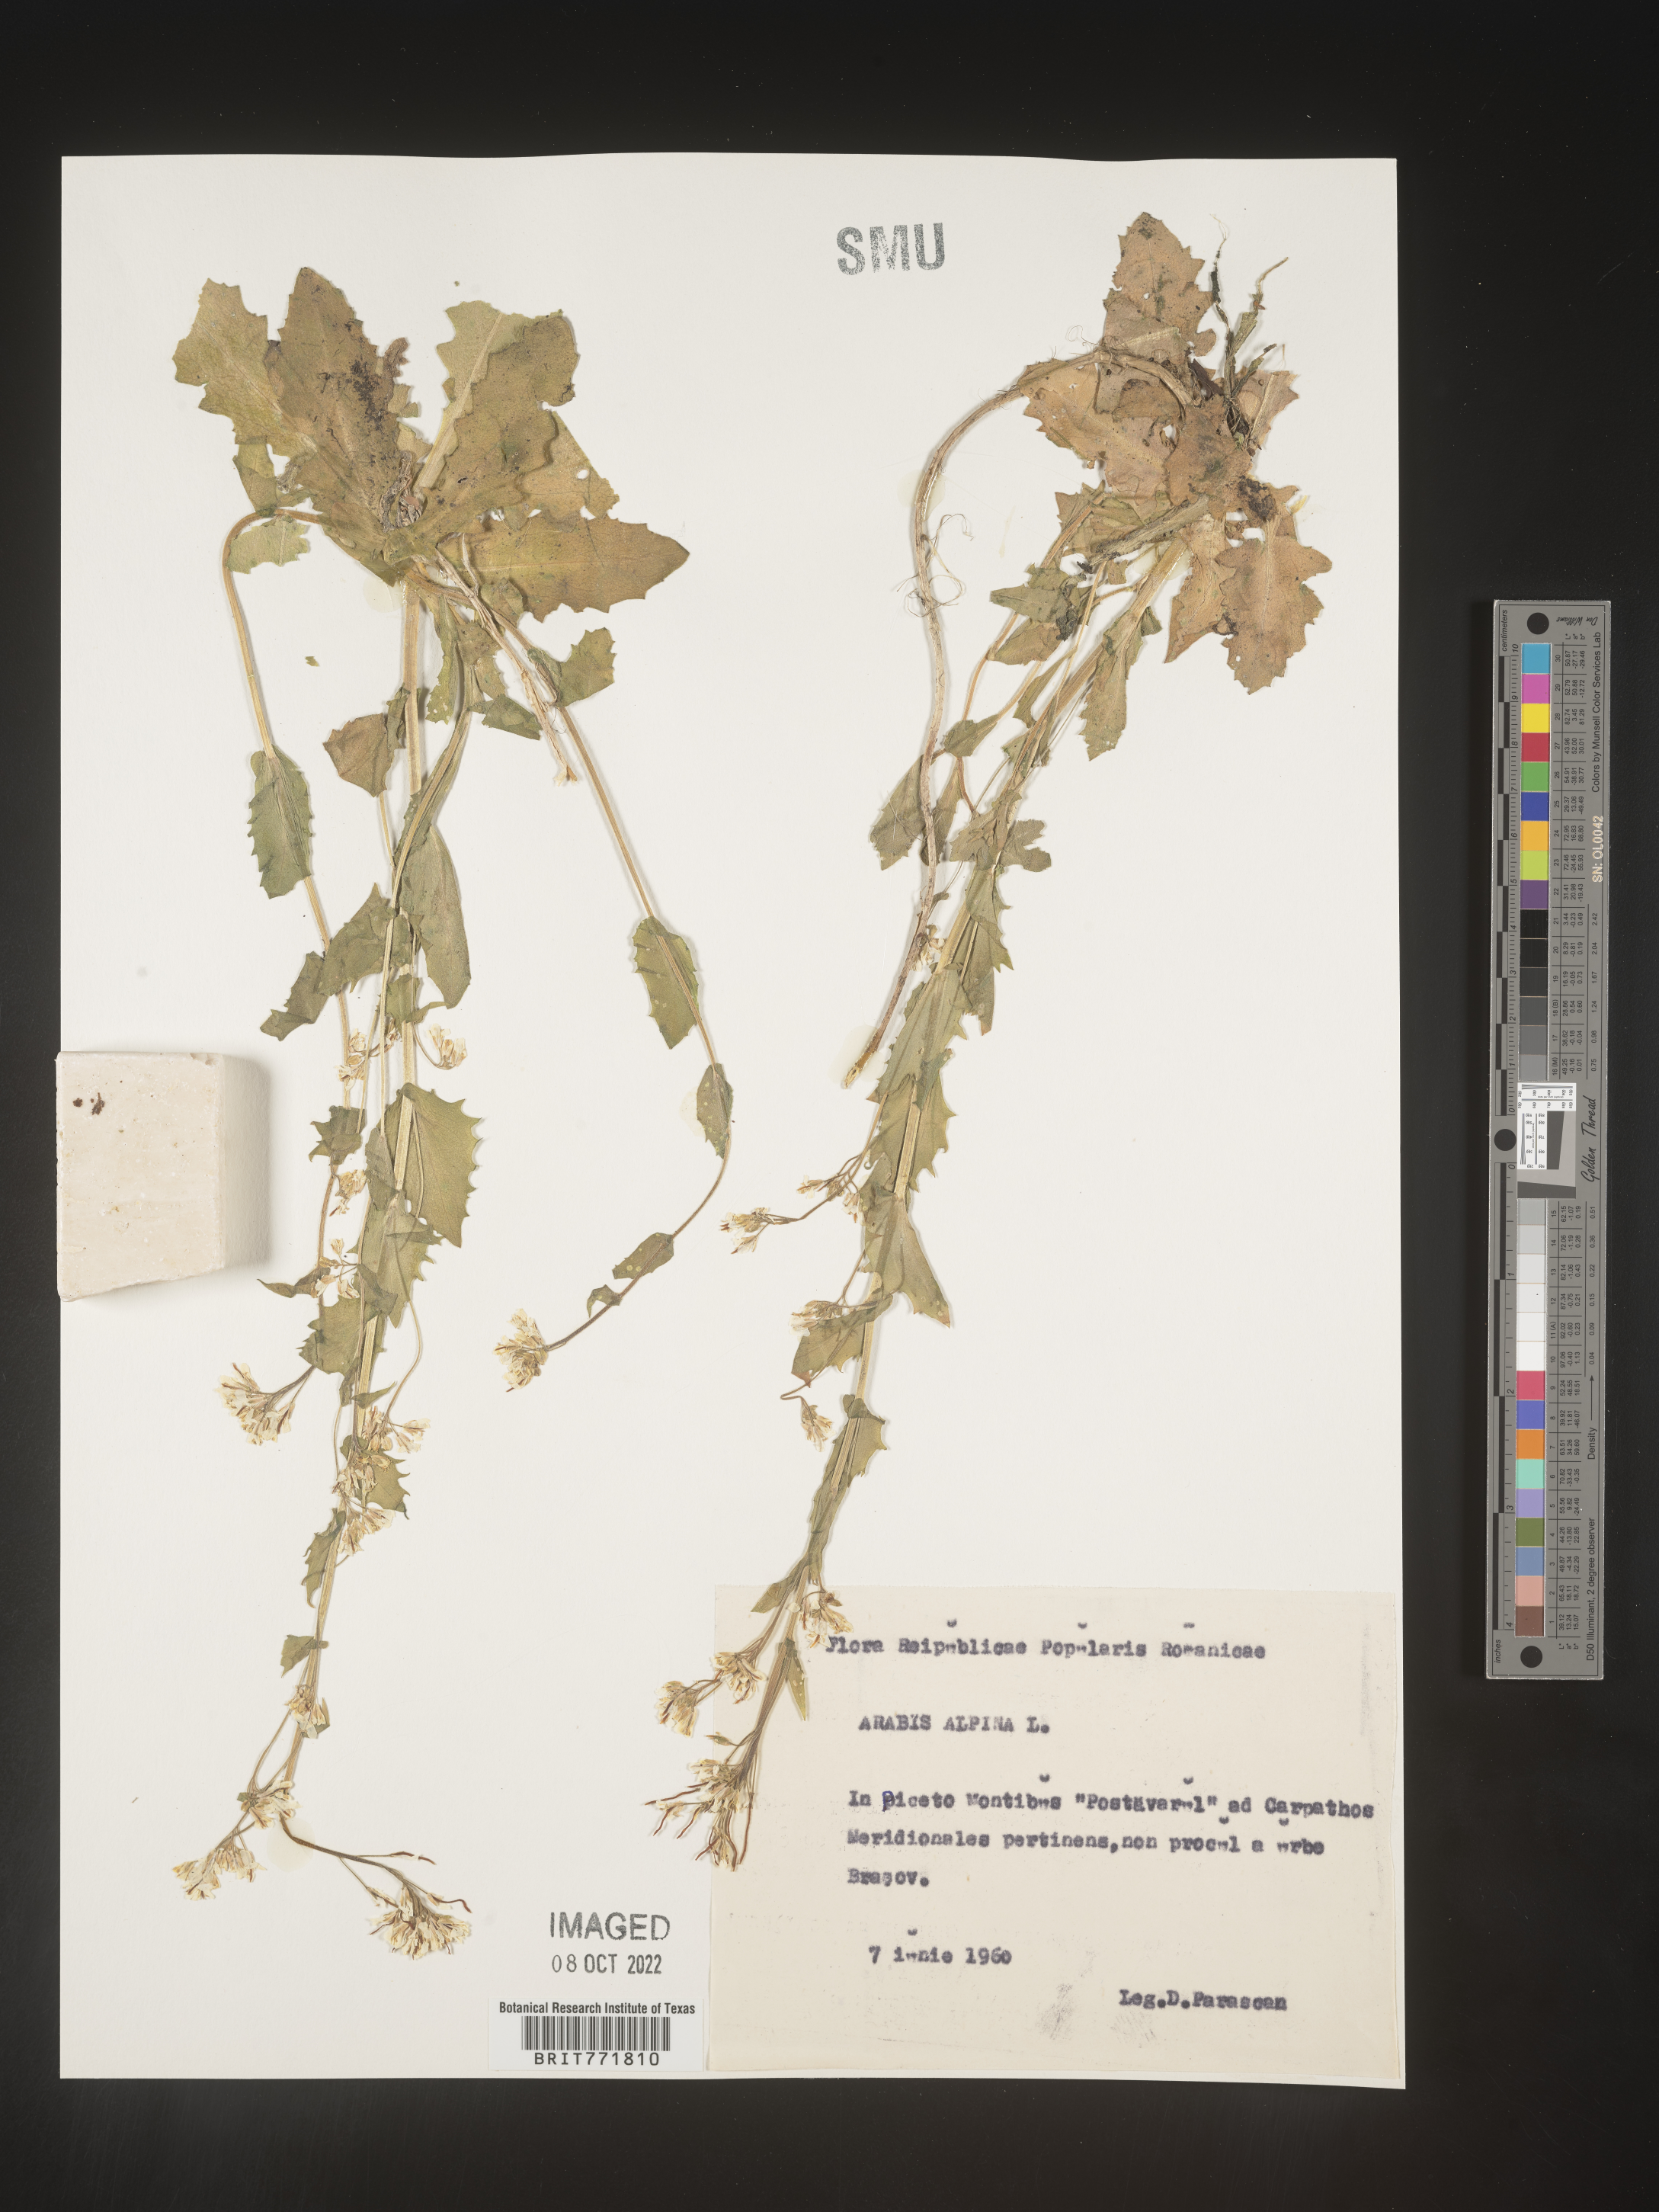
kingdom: Plantae
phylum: Tracheophyta
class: Magnoliopsida
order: Brassicales
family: Brassicaceae
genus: Arabis
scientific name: Arabis
